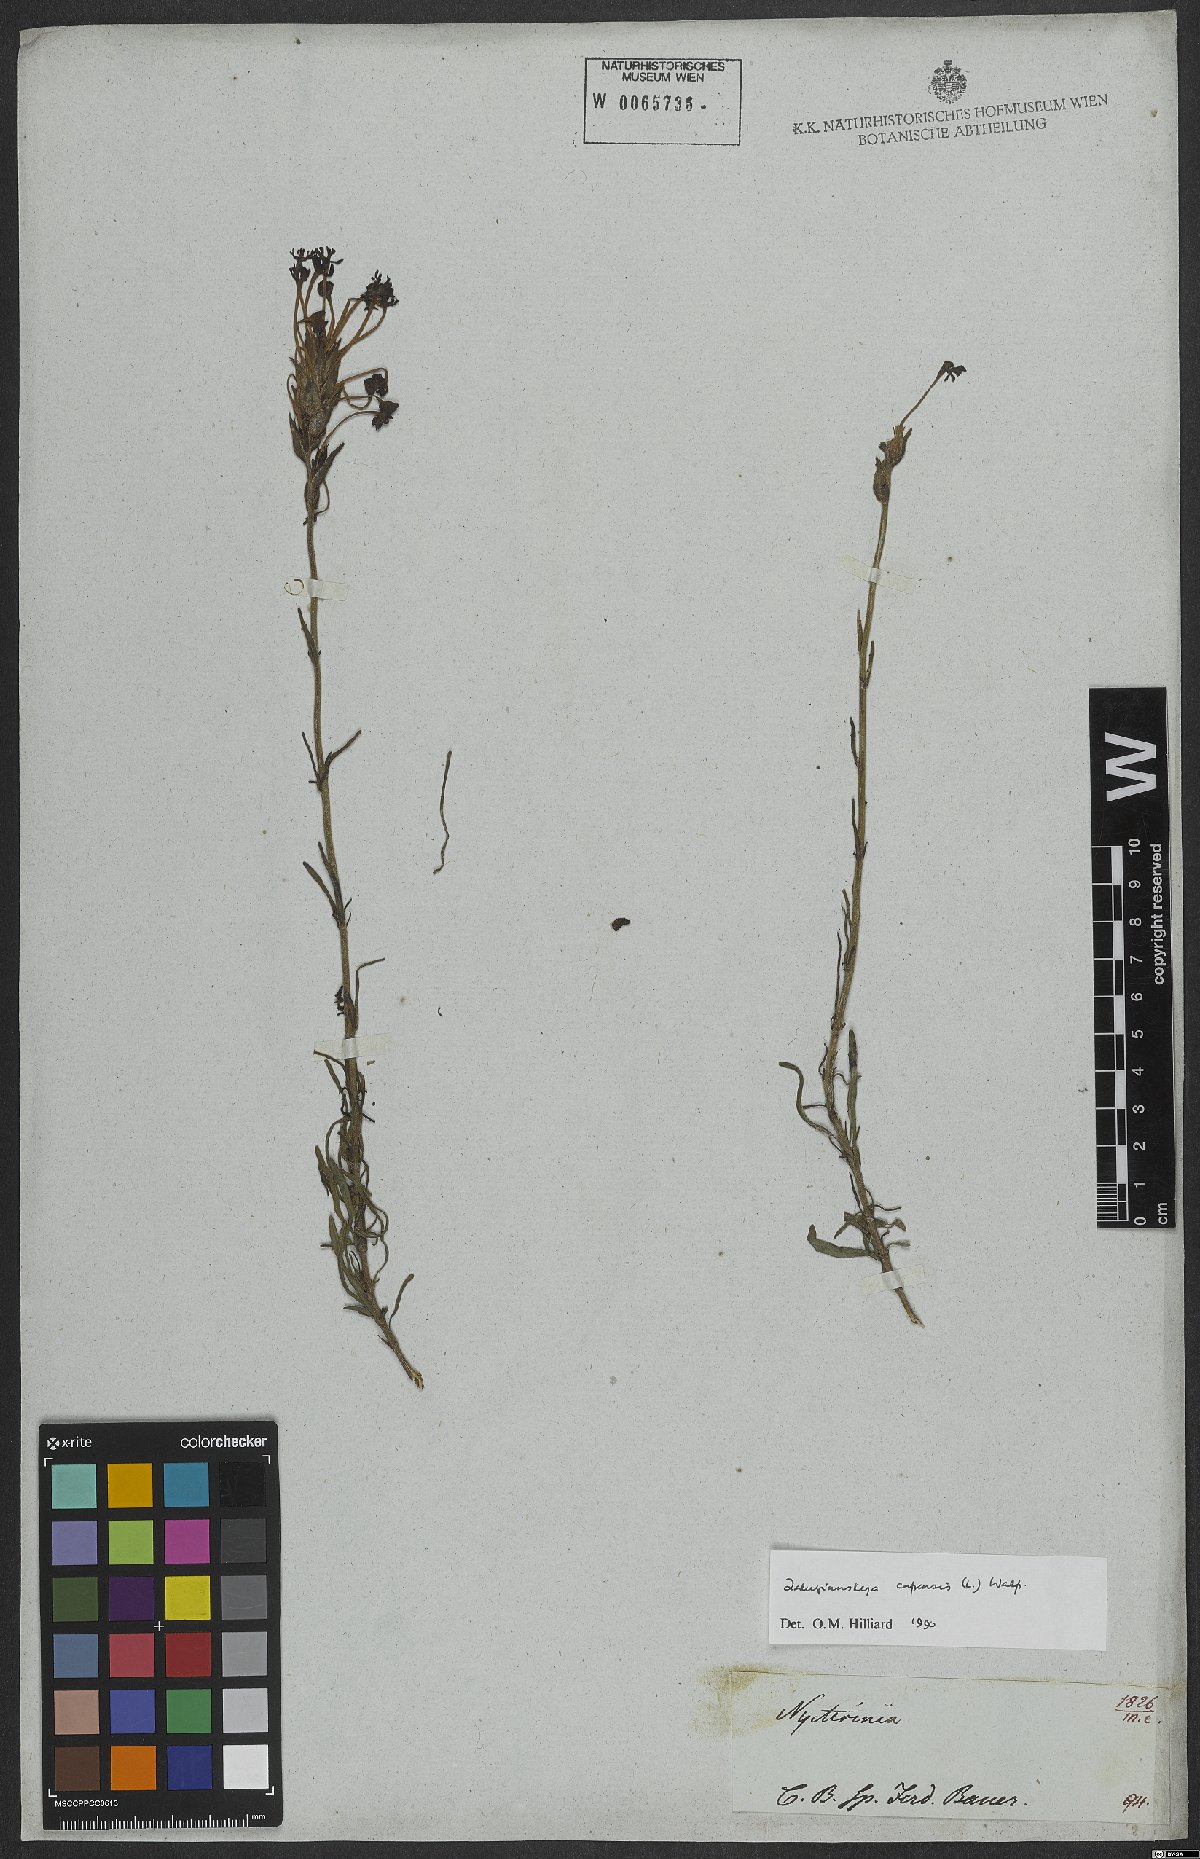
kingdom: Plantae
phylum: Tracheophyta
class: Magnoliopsida
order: Lamiales
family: Scrophulariaceae
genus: Zaluzianskya
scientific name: Zaluzianskya capensis
